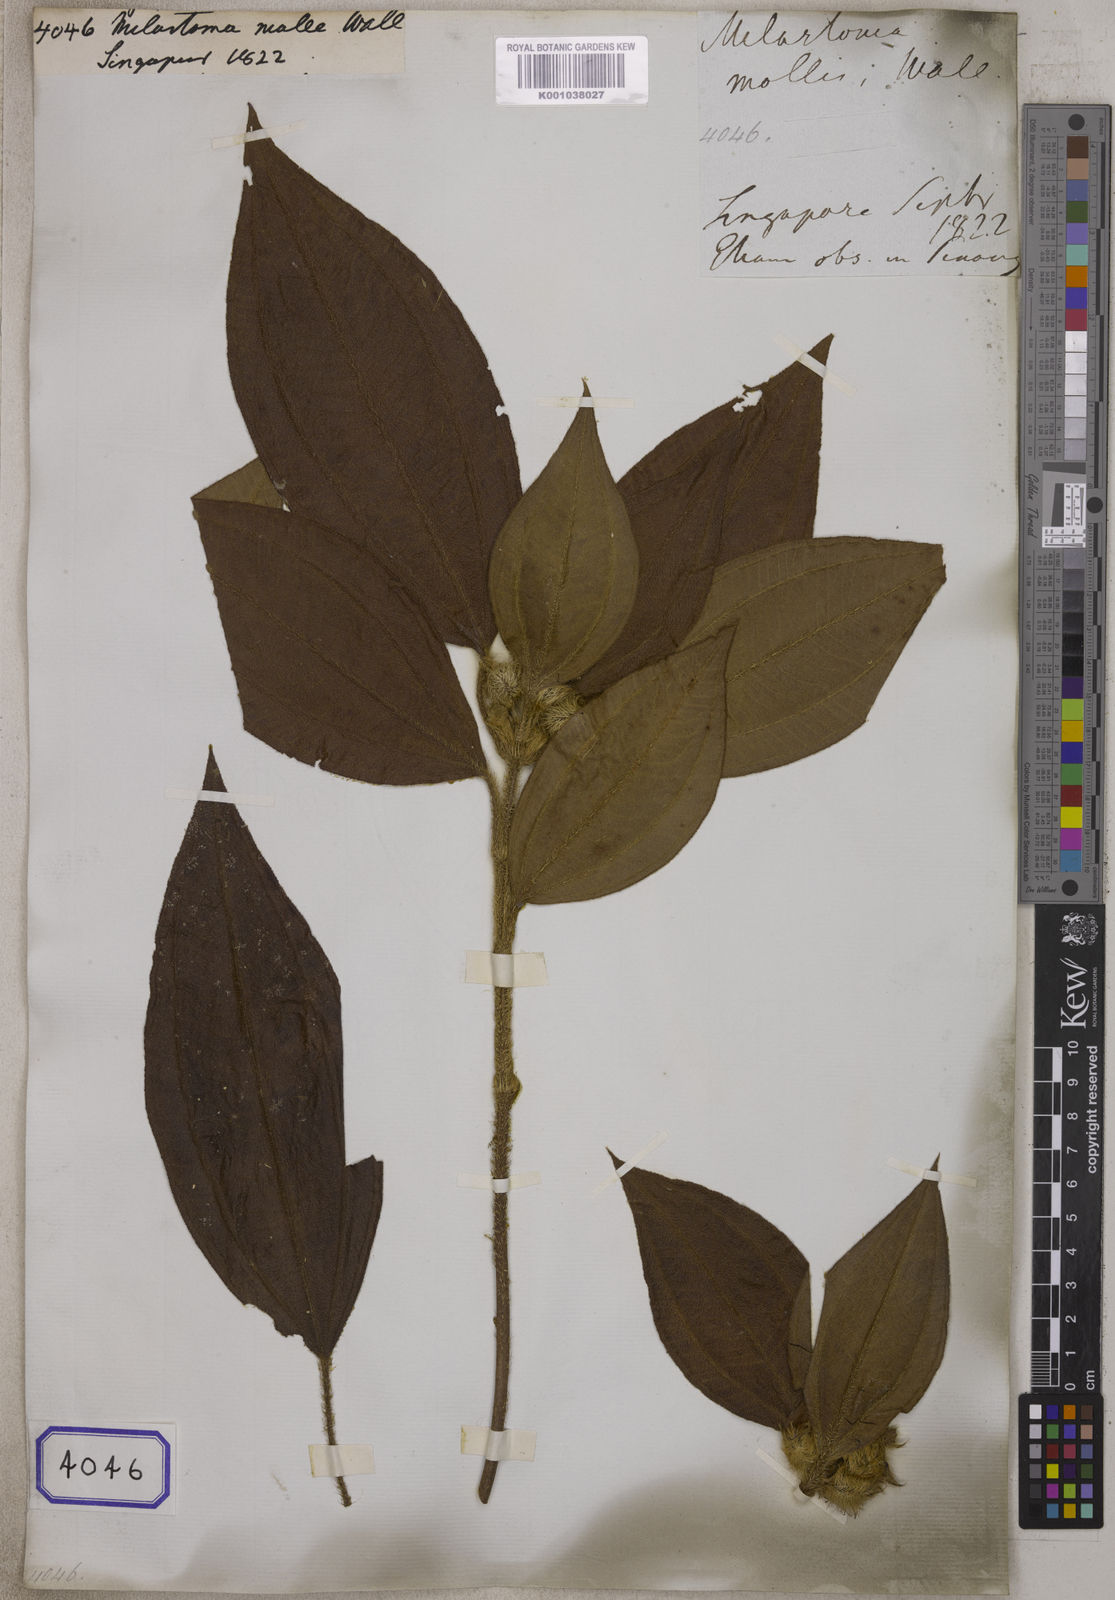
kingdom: Plantae
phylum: Tracheophyta
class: Magnoliopsida
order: Myrtales
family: Melastomataceae
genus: Melastoma
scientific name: Melastoma penicillatum
